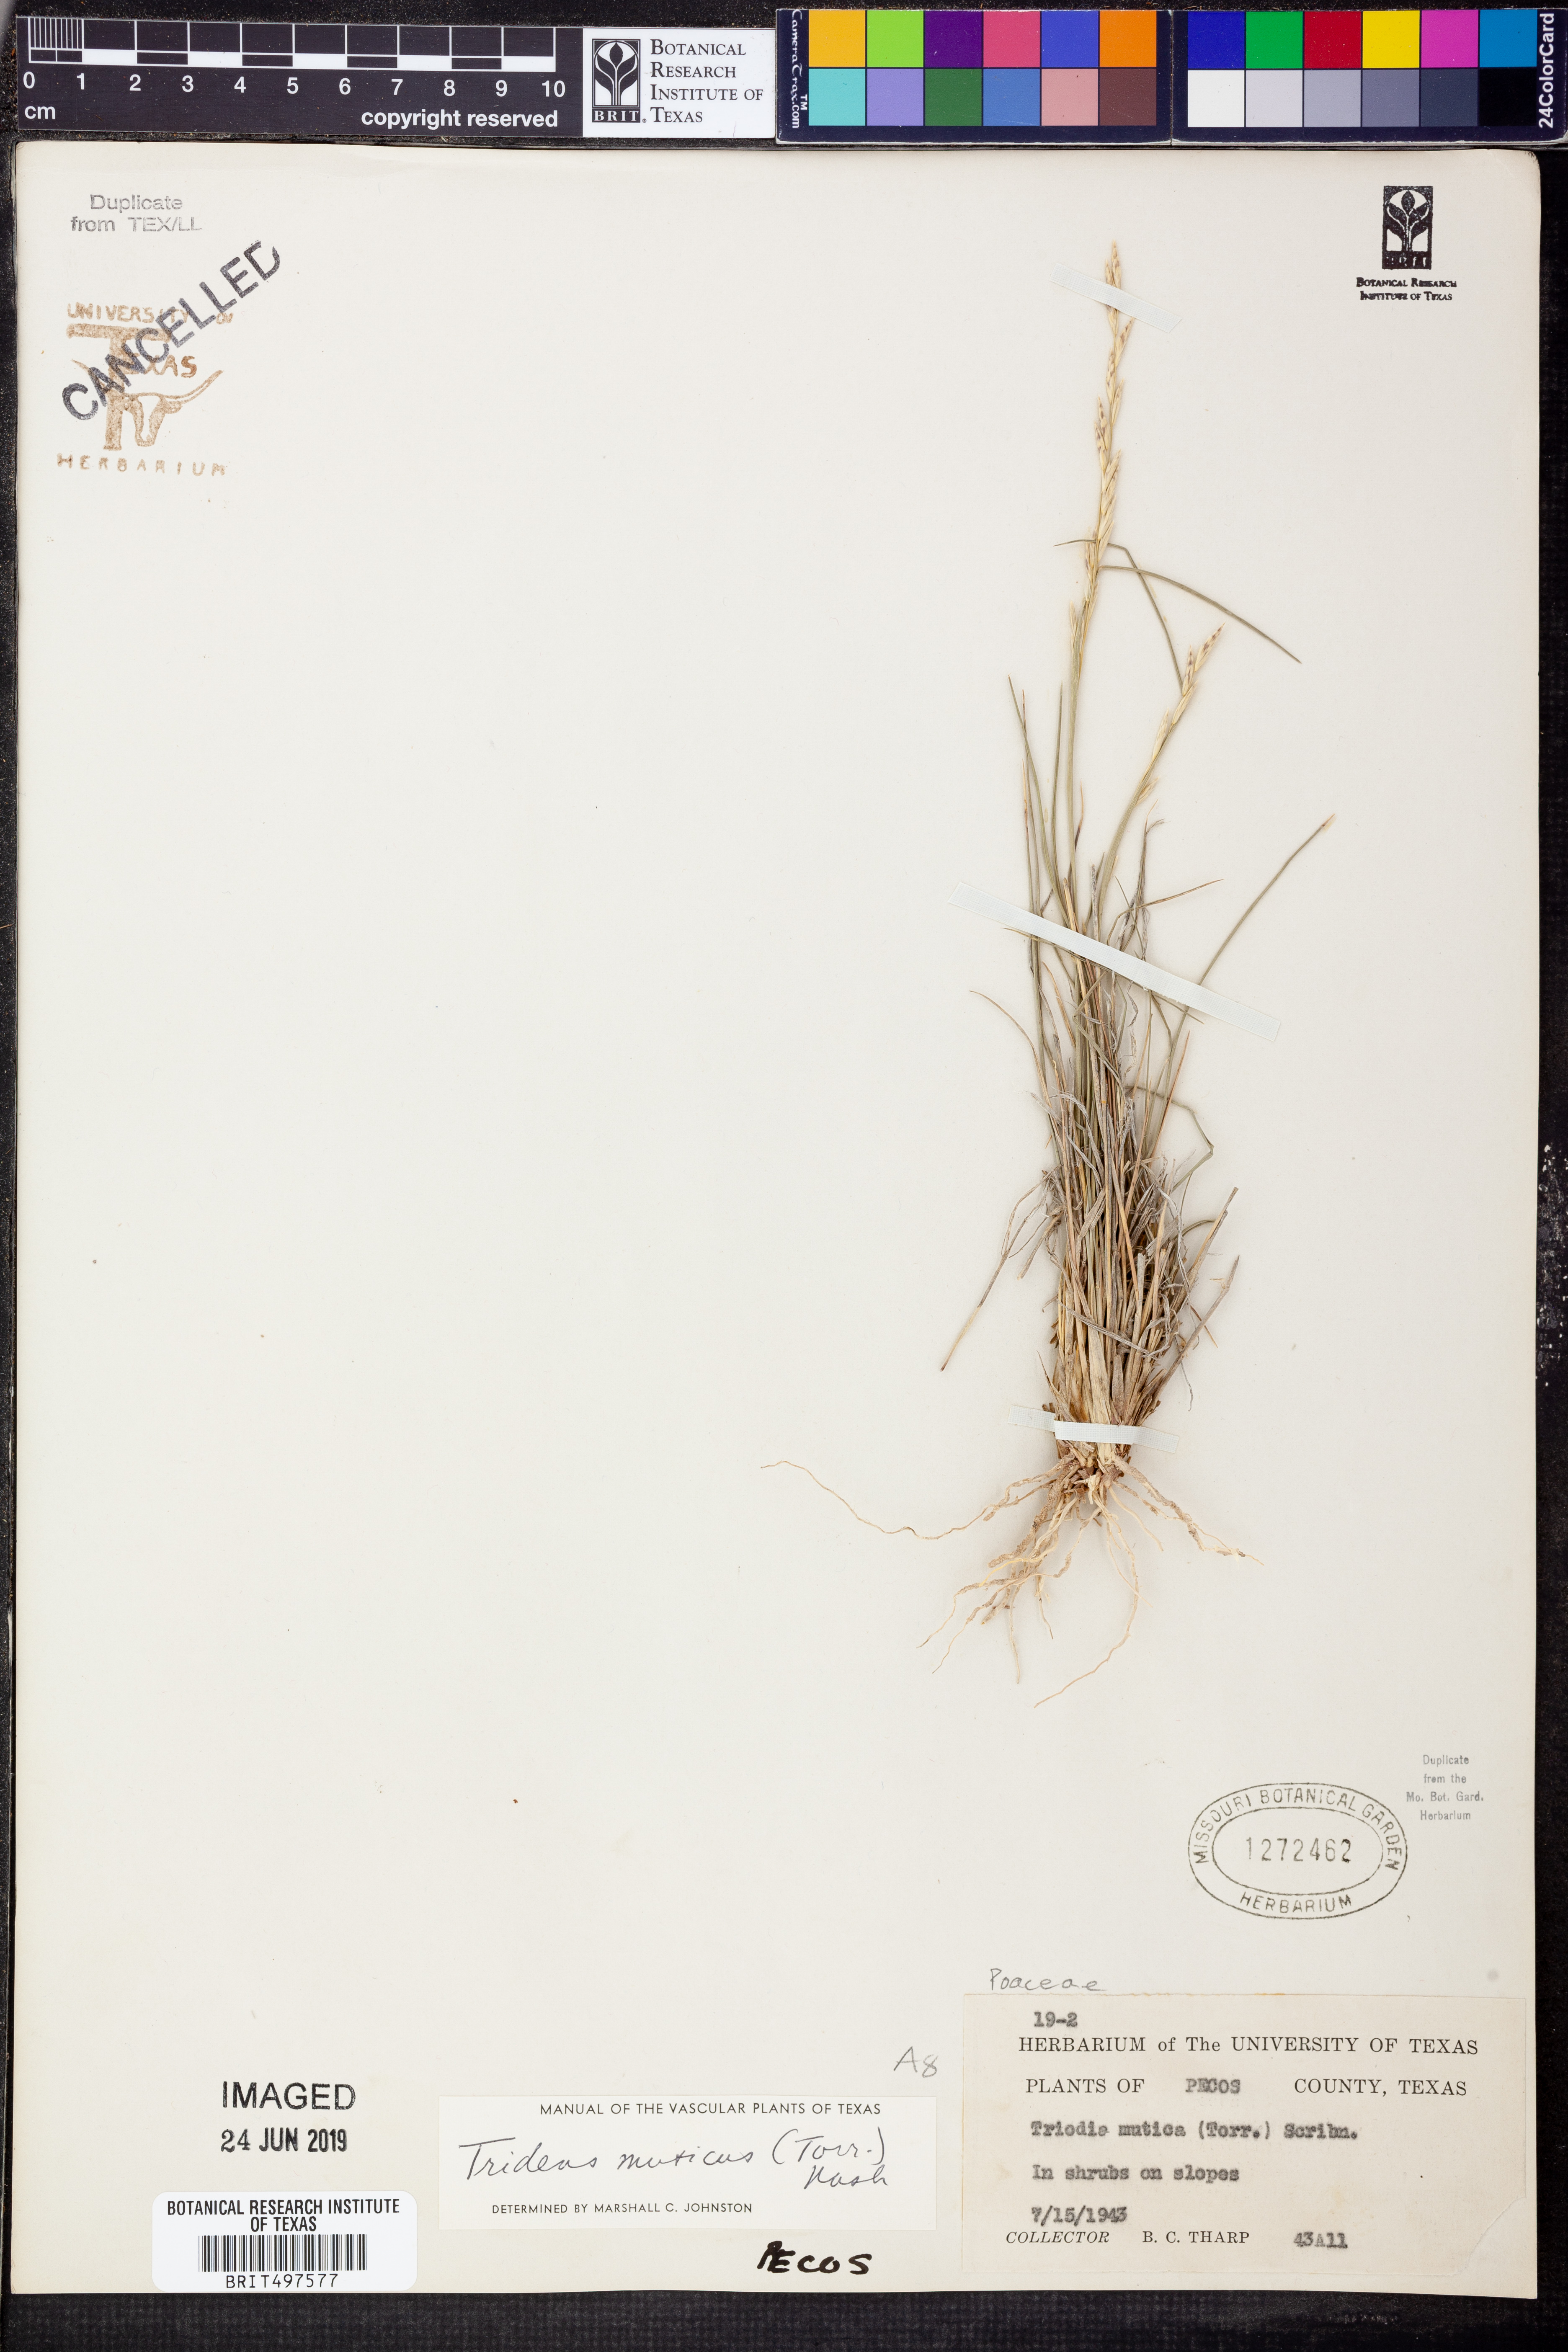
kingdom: Plantae
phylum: Tracheophyta
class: Liliopsida
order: Poales
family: Poaceae
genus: Tridentopsis
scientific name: Tridentopsis mutica
